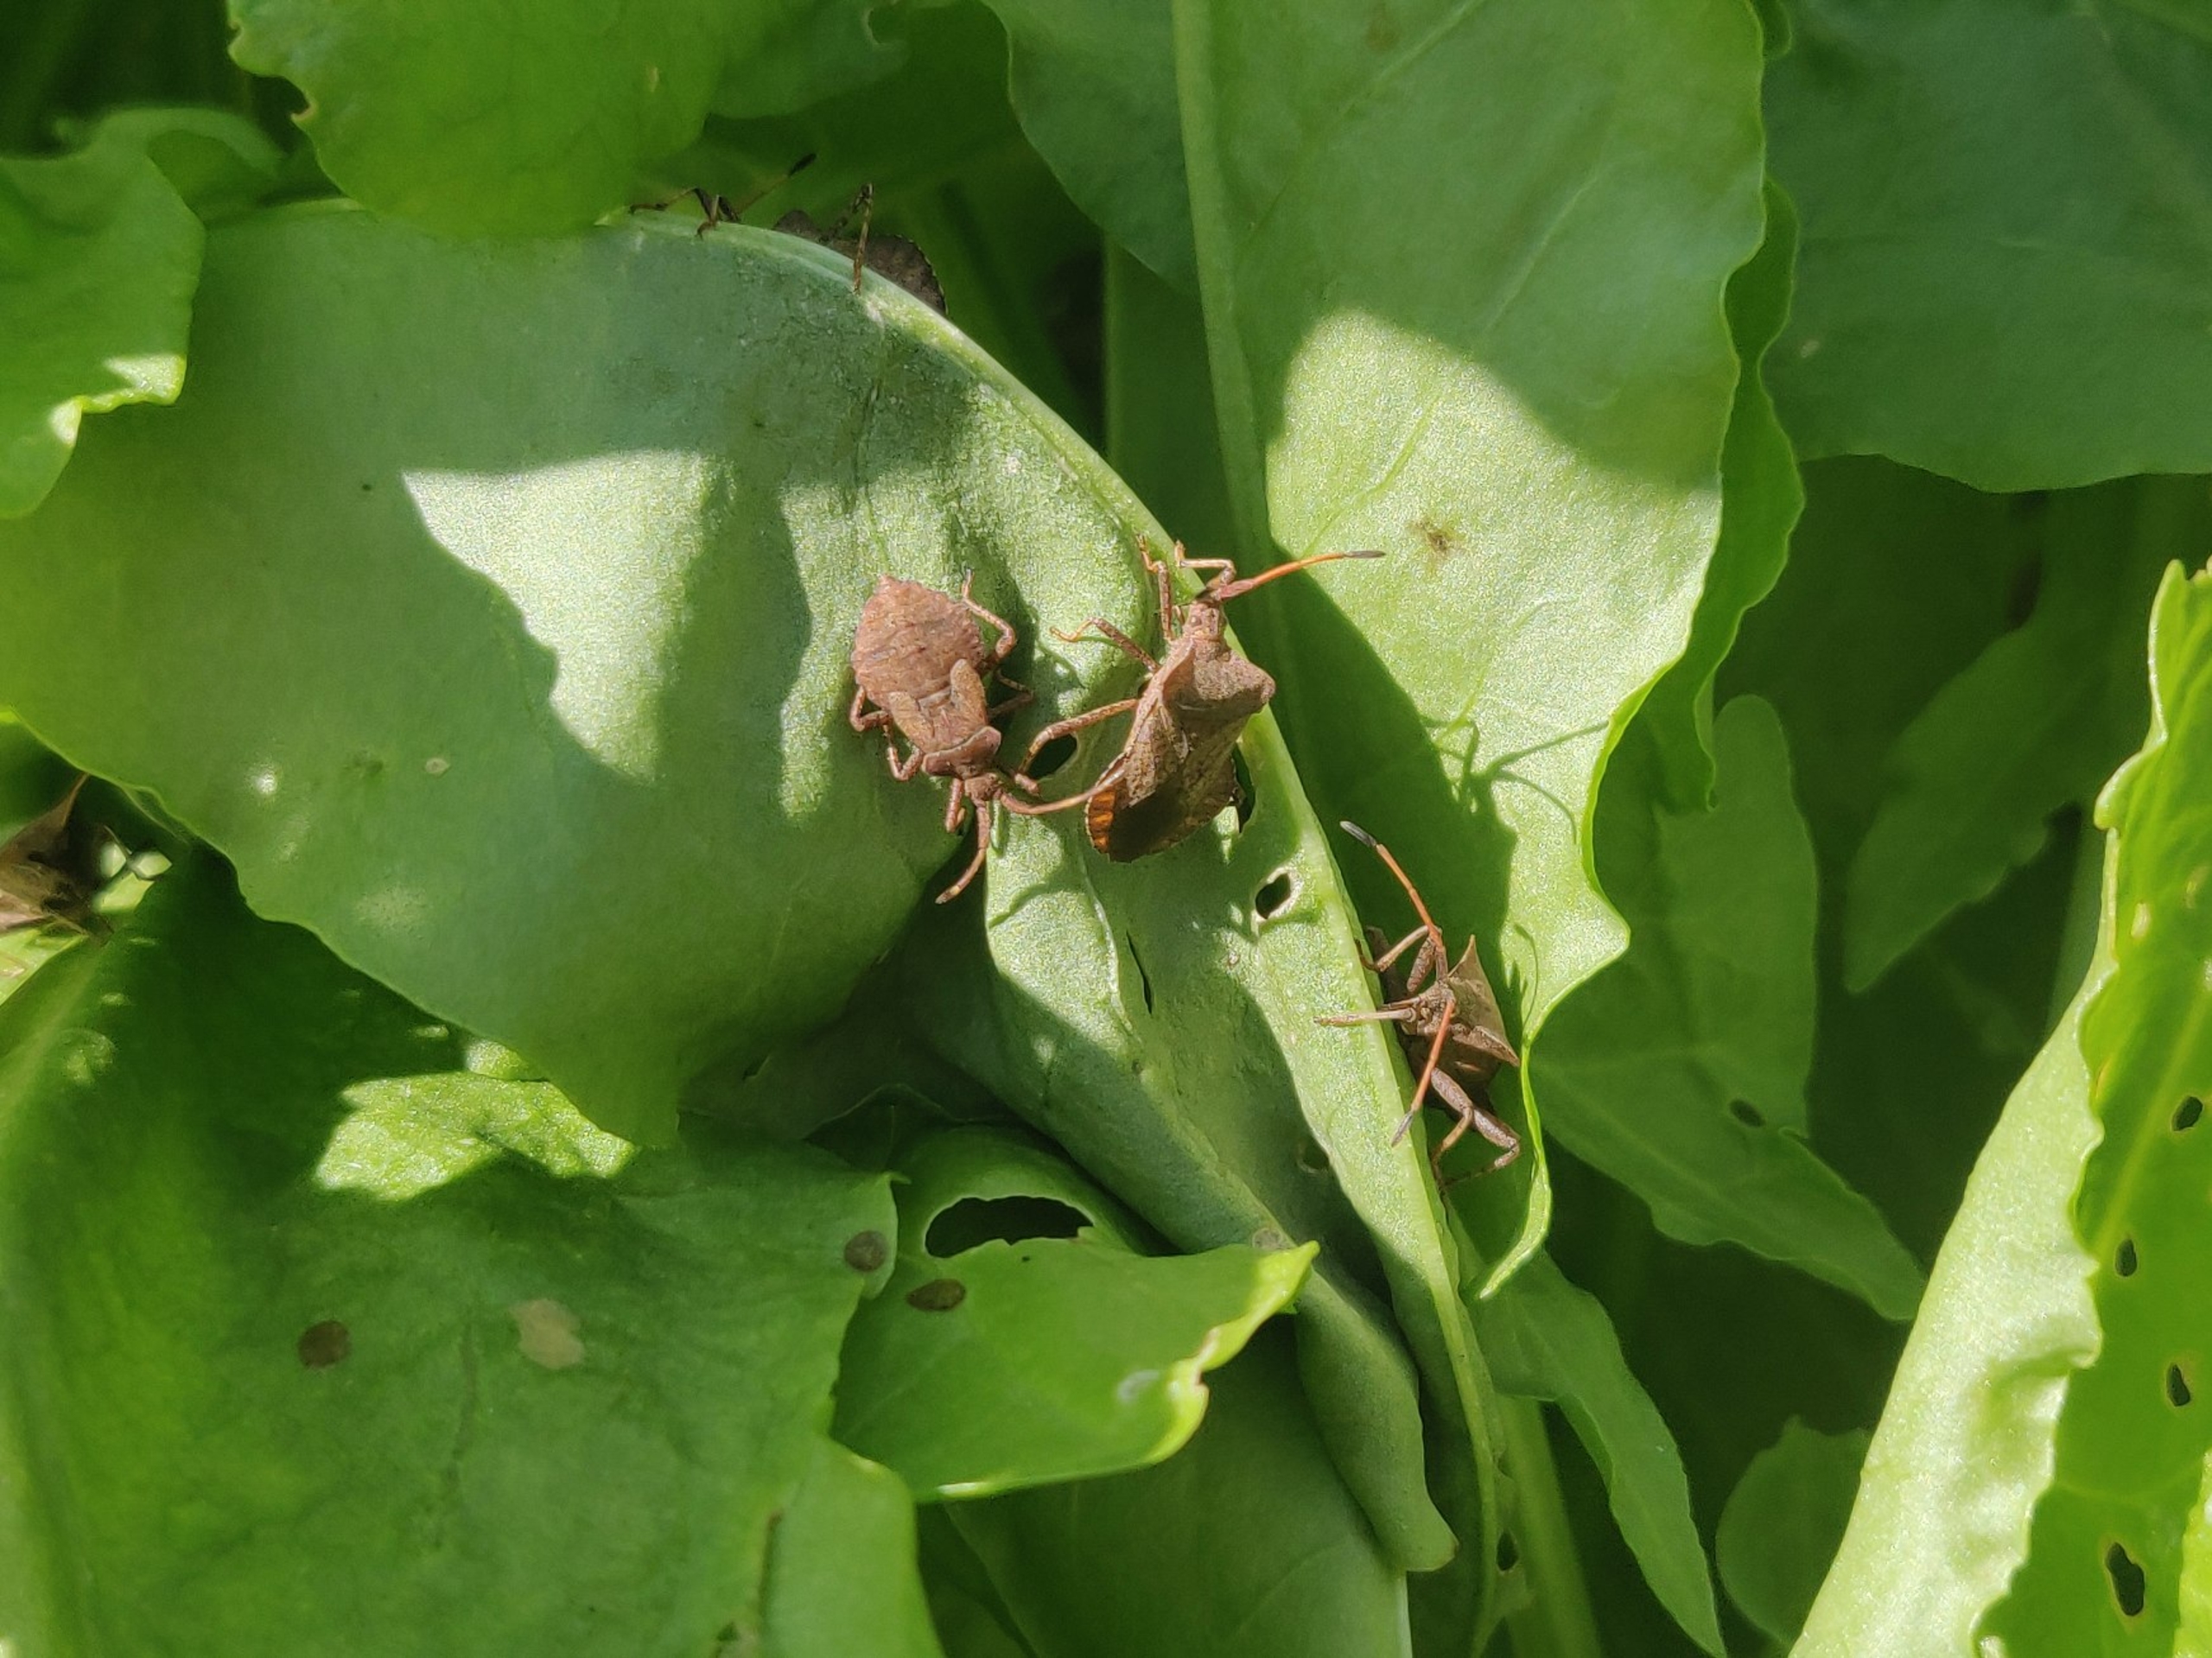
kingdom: Animalia
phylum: Arthropoda
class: Insecta
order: Hemiptera
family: Coreidae
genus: Coreus
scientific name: Coreus marginatus
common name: Skræppetæge
